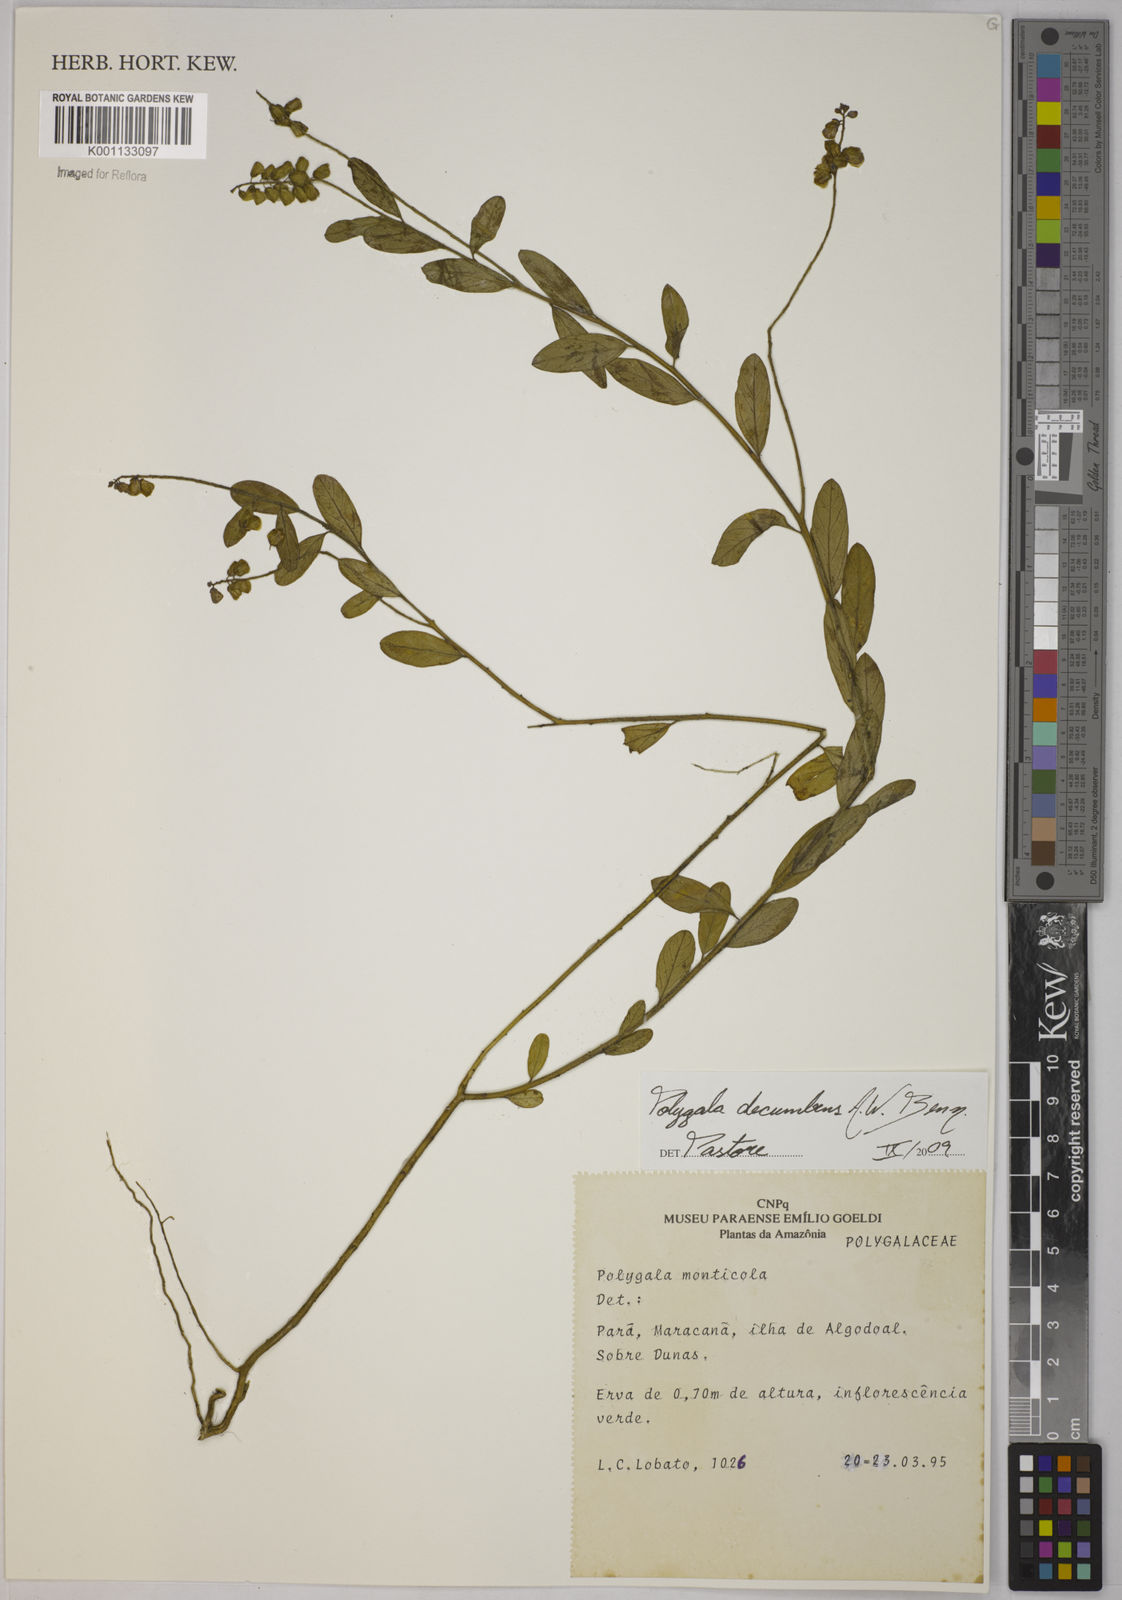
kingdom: Plantae
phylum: Tracheophyta
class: Magnoliopsida
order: Fabales
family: Polygalaceae
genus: Asemeia
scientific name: Asemeia ovata
